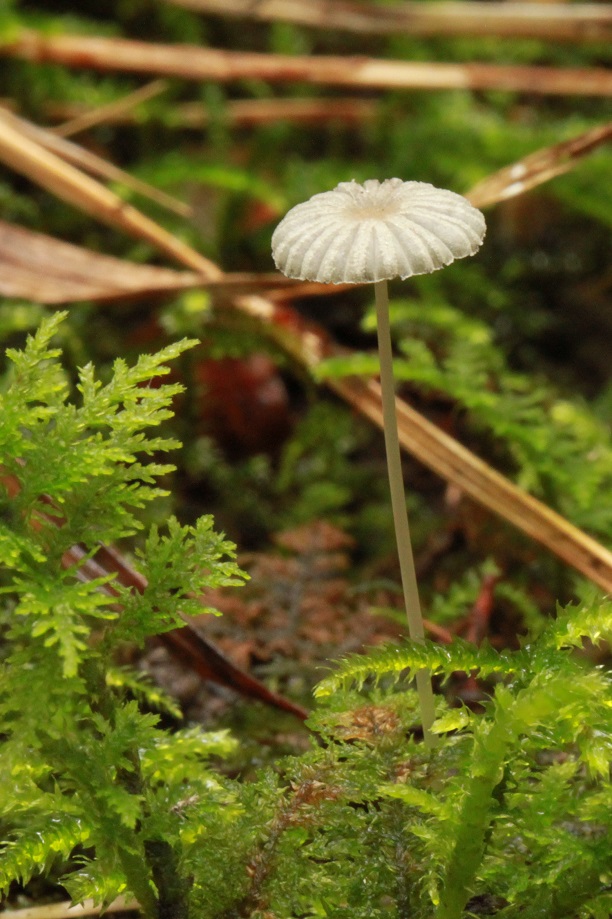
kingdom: Fungi
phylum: Basidiomycota
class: Agaricomycetes
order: Agaricales
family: Psathyrellaceae
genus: Parasola
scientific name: Parasola kuehneri
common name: skygge-hjulhat
